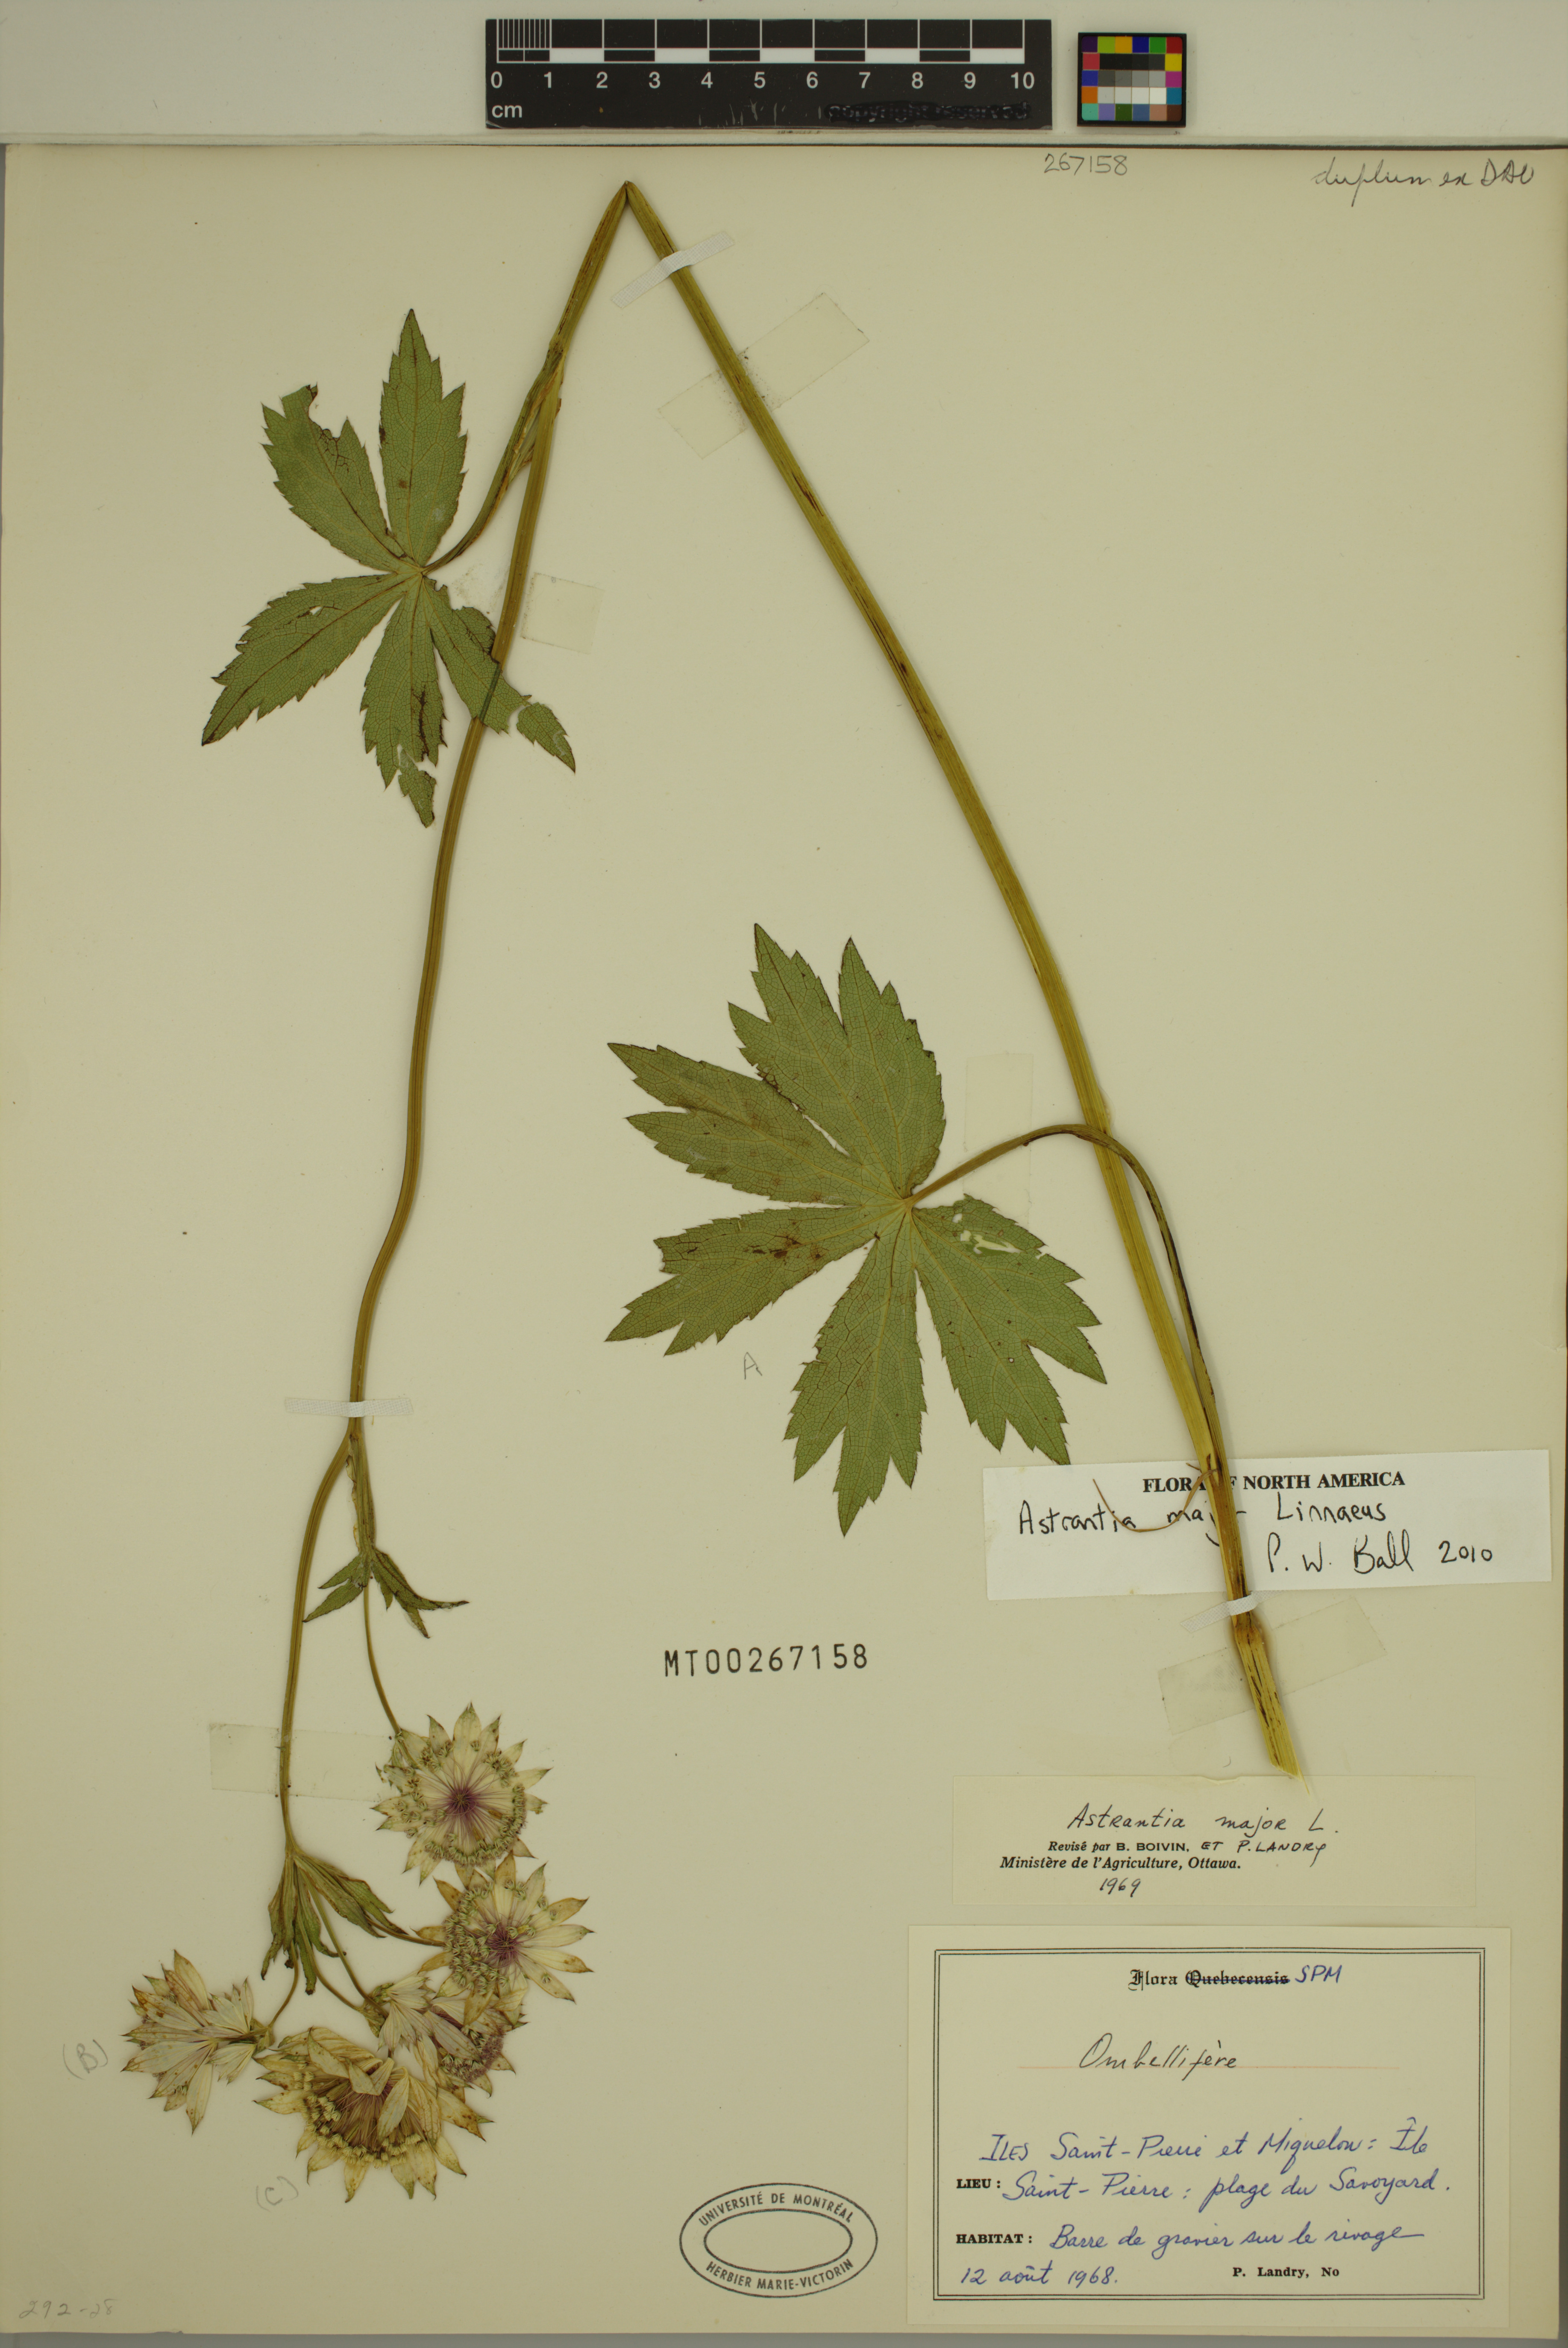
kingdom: Plantae
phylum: Tracheophyta
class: Magnoliopsida
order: Apiales
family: Apiaceae
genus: Astrantia
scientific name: Astrantia major
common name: Greater masterwort
